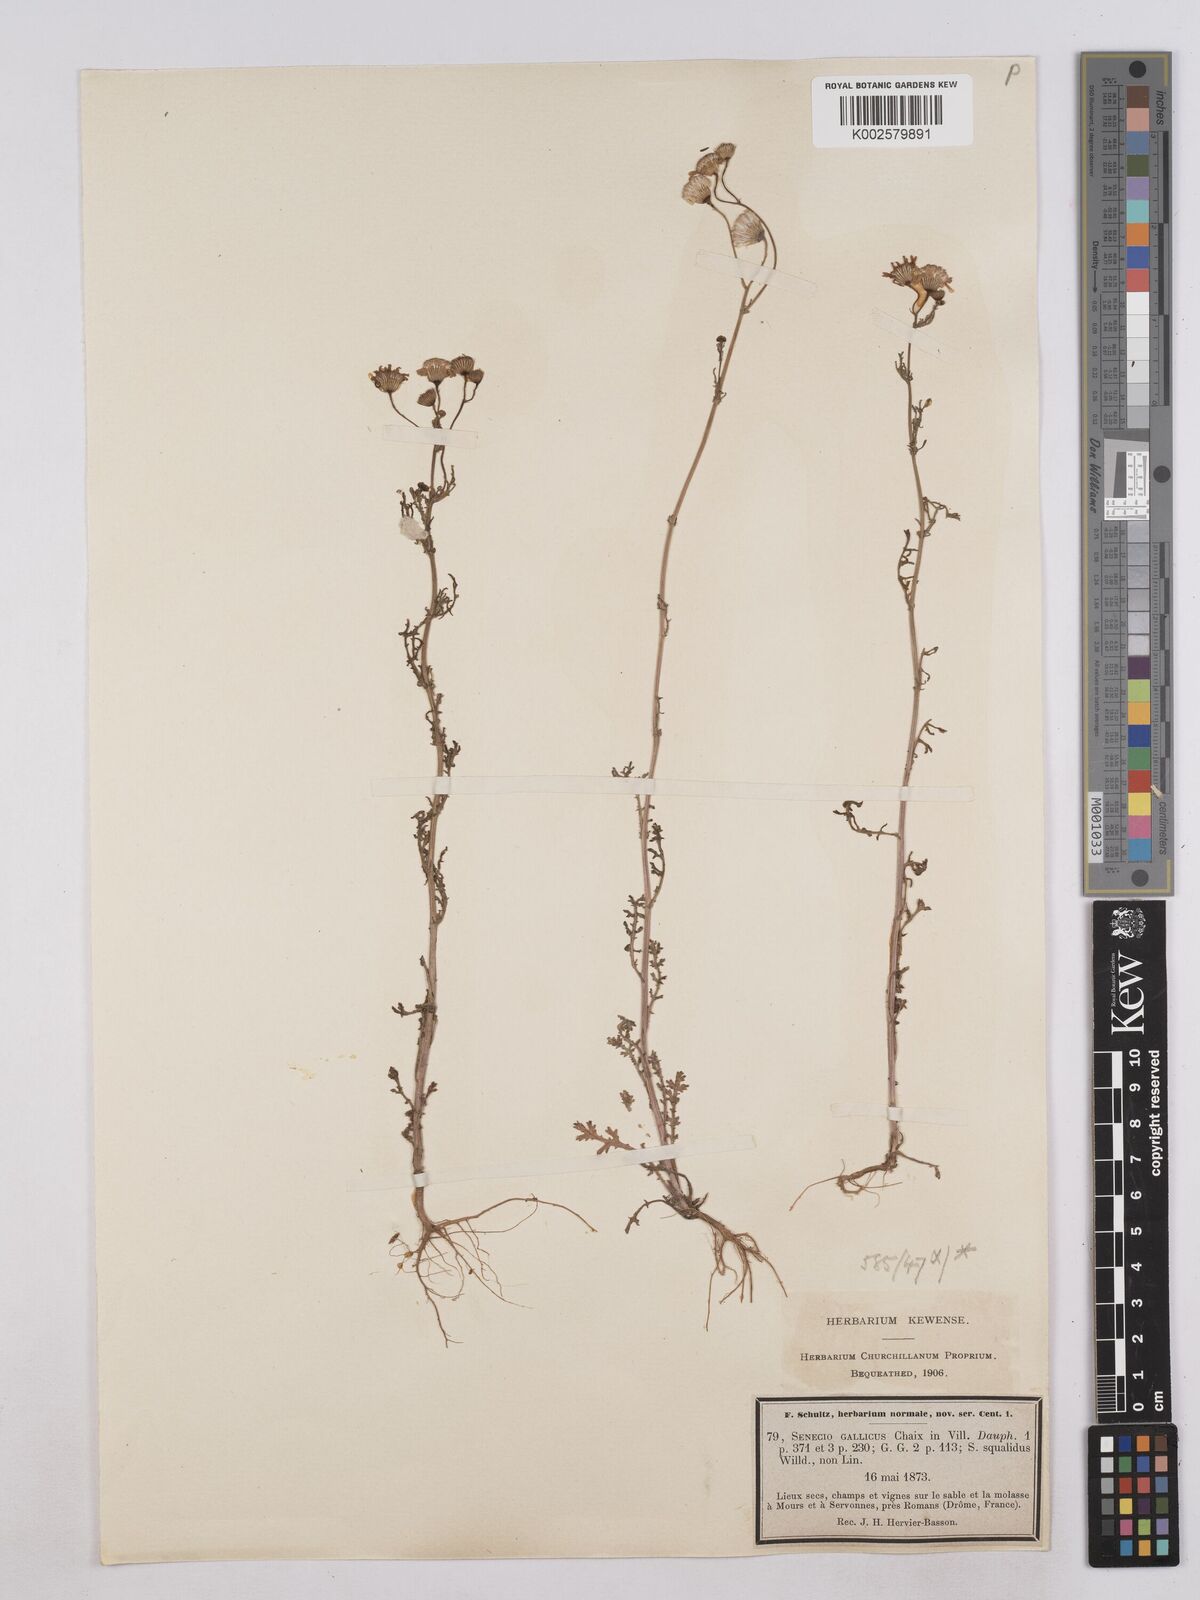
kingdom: Plantae
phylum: Tracheophyta
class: Magnoliopsida
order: Asterales
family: Asteraceae
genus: Senecio
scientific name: Senecio gallicus
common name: French groundsel
